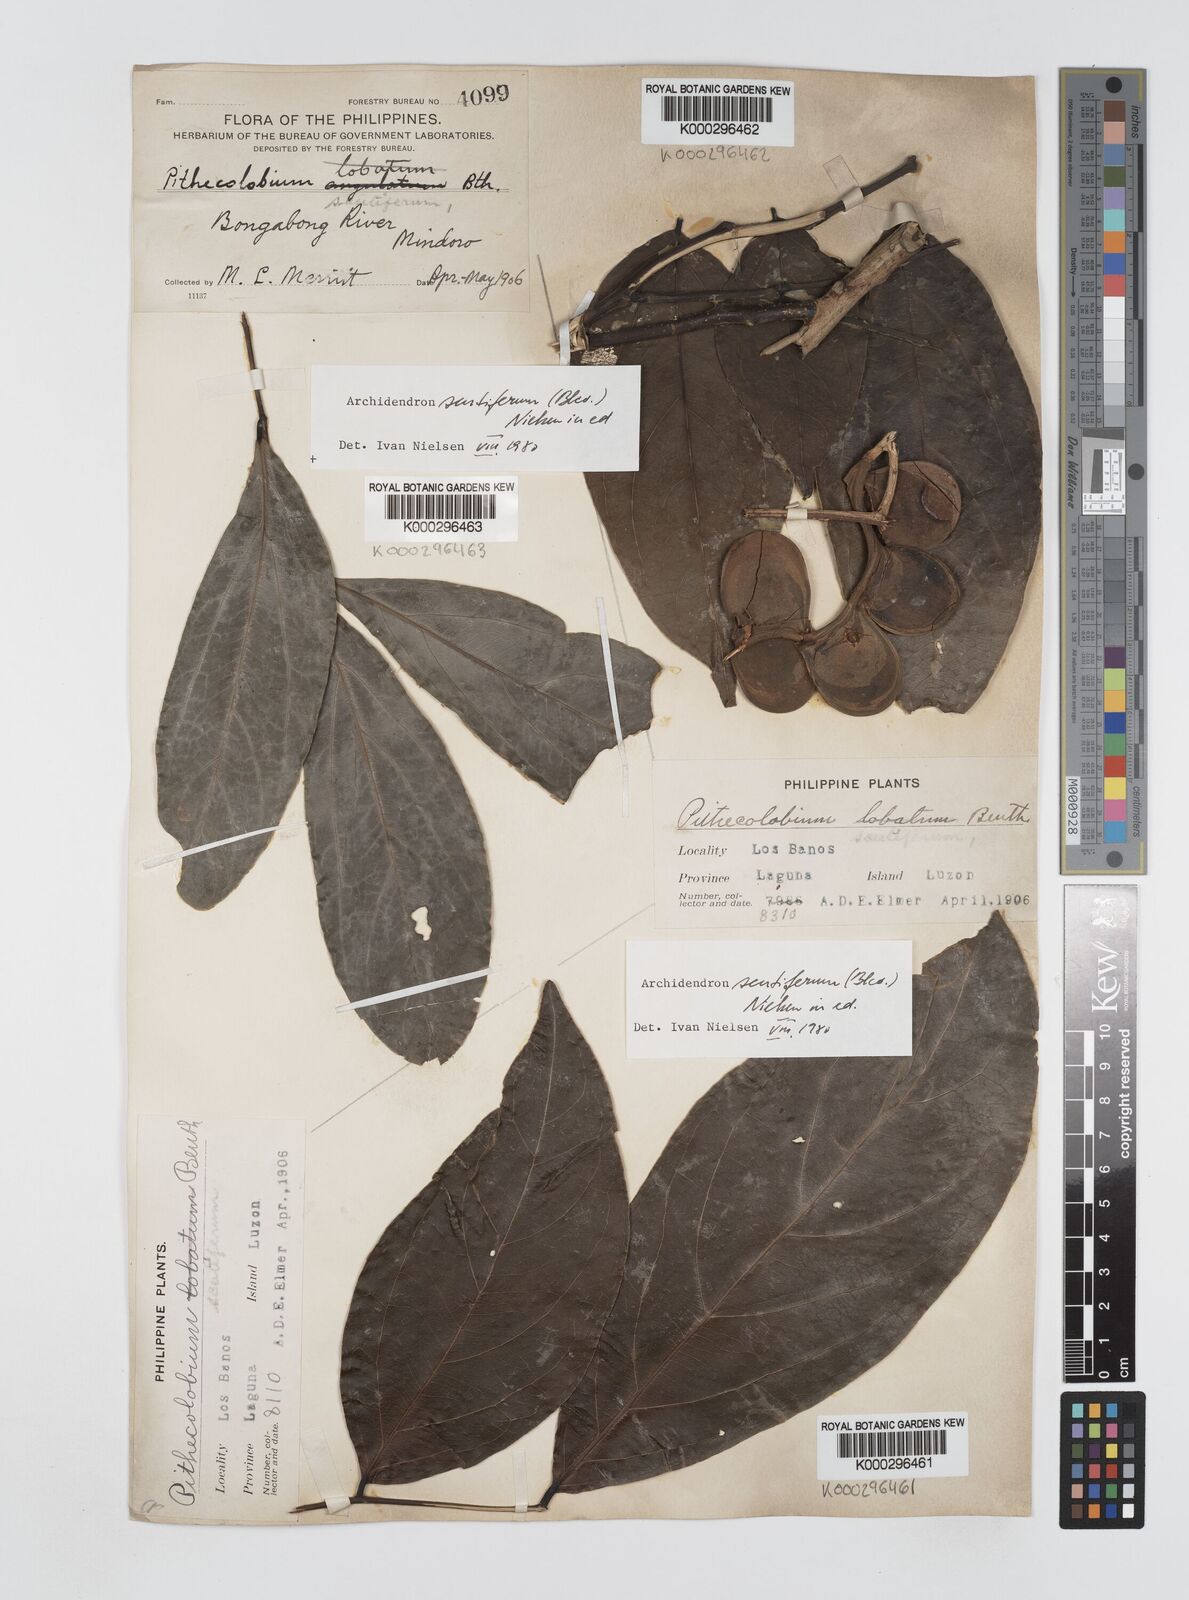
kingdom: Plantae
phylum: Tracheophyta
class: Magnoliopsida
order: Fabales
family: Fabaceae
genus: Archidendron
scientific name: Archidendron scutiferum
